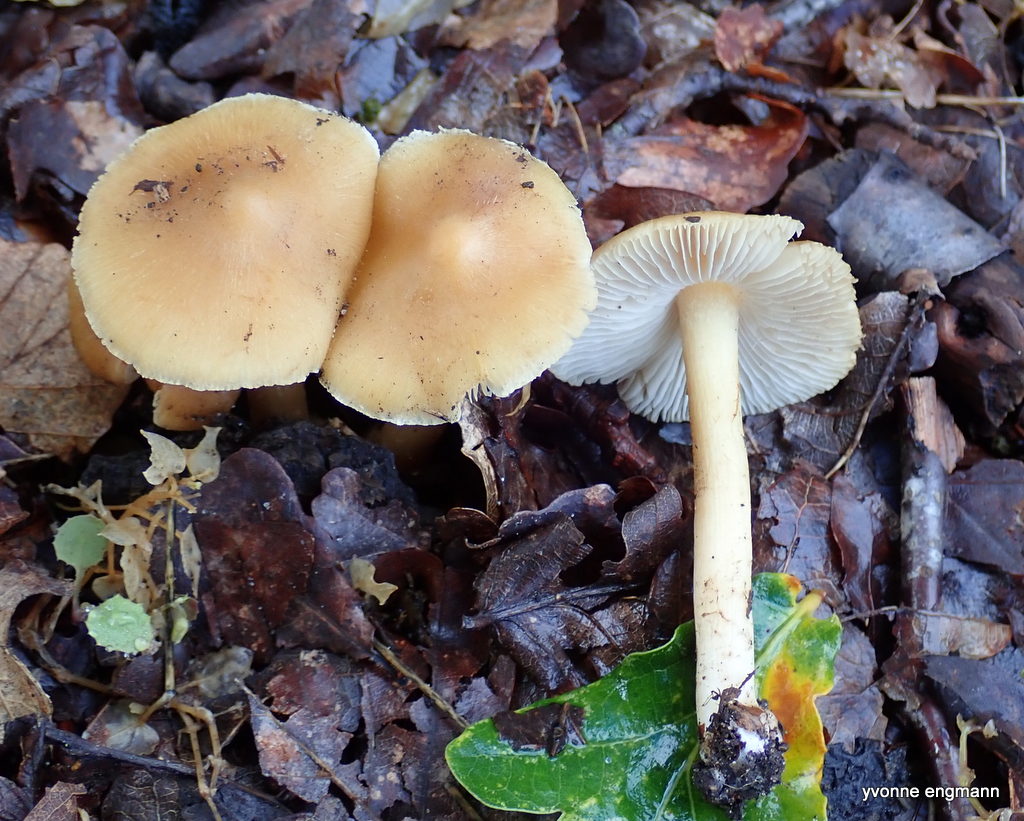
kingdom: Fungi
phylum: Basidiomycota
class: Agaricomycetes
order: Agaricales
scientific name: Agaricales
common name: champignonordenen
